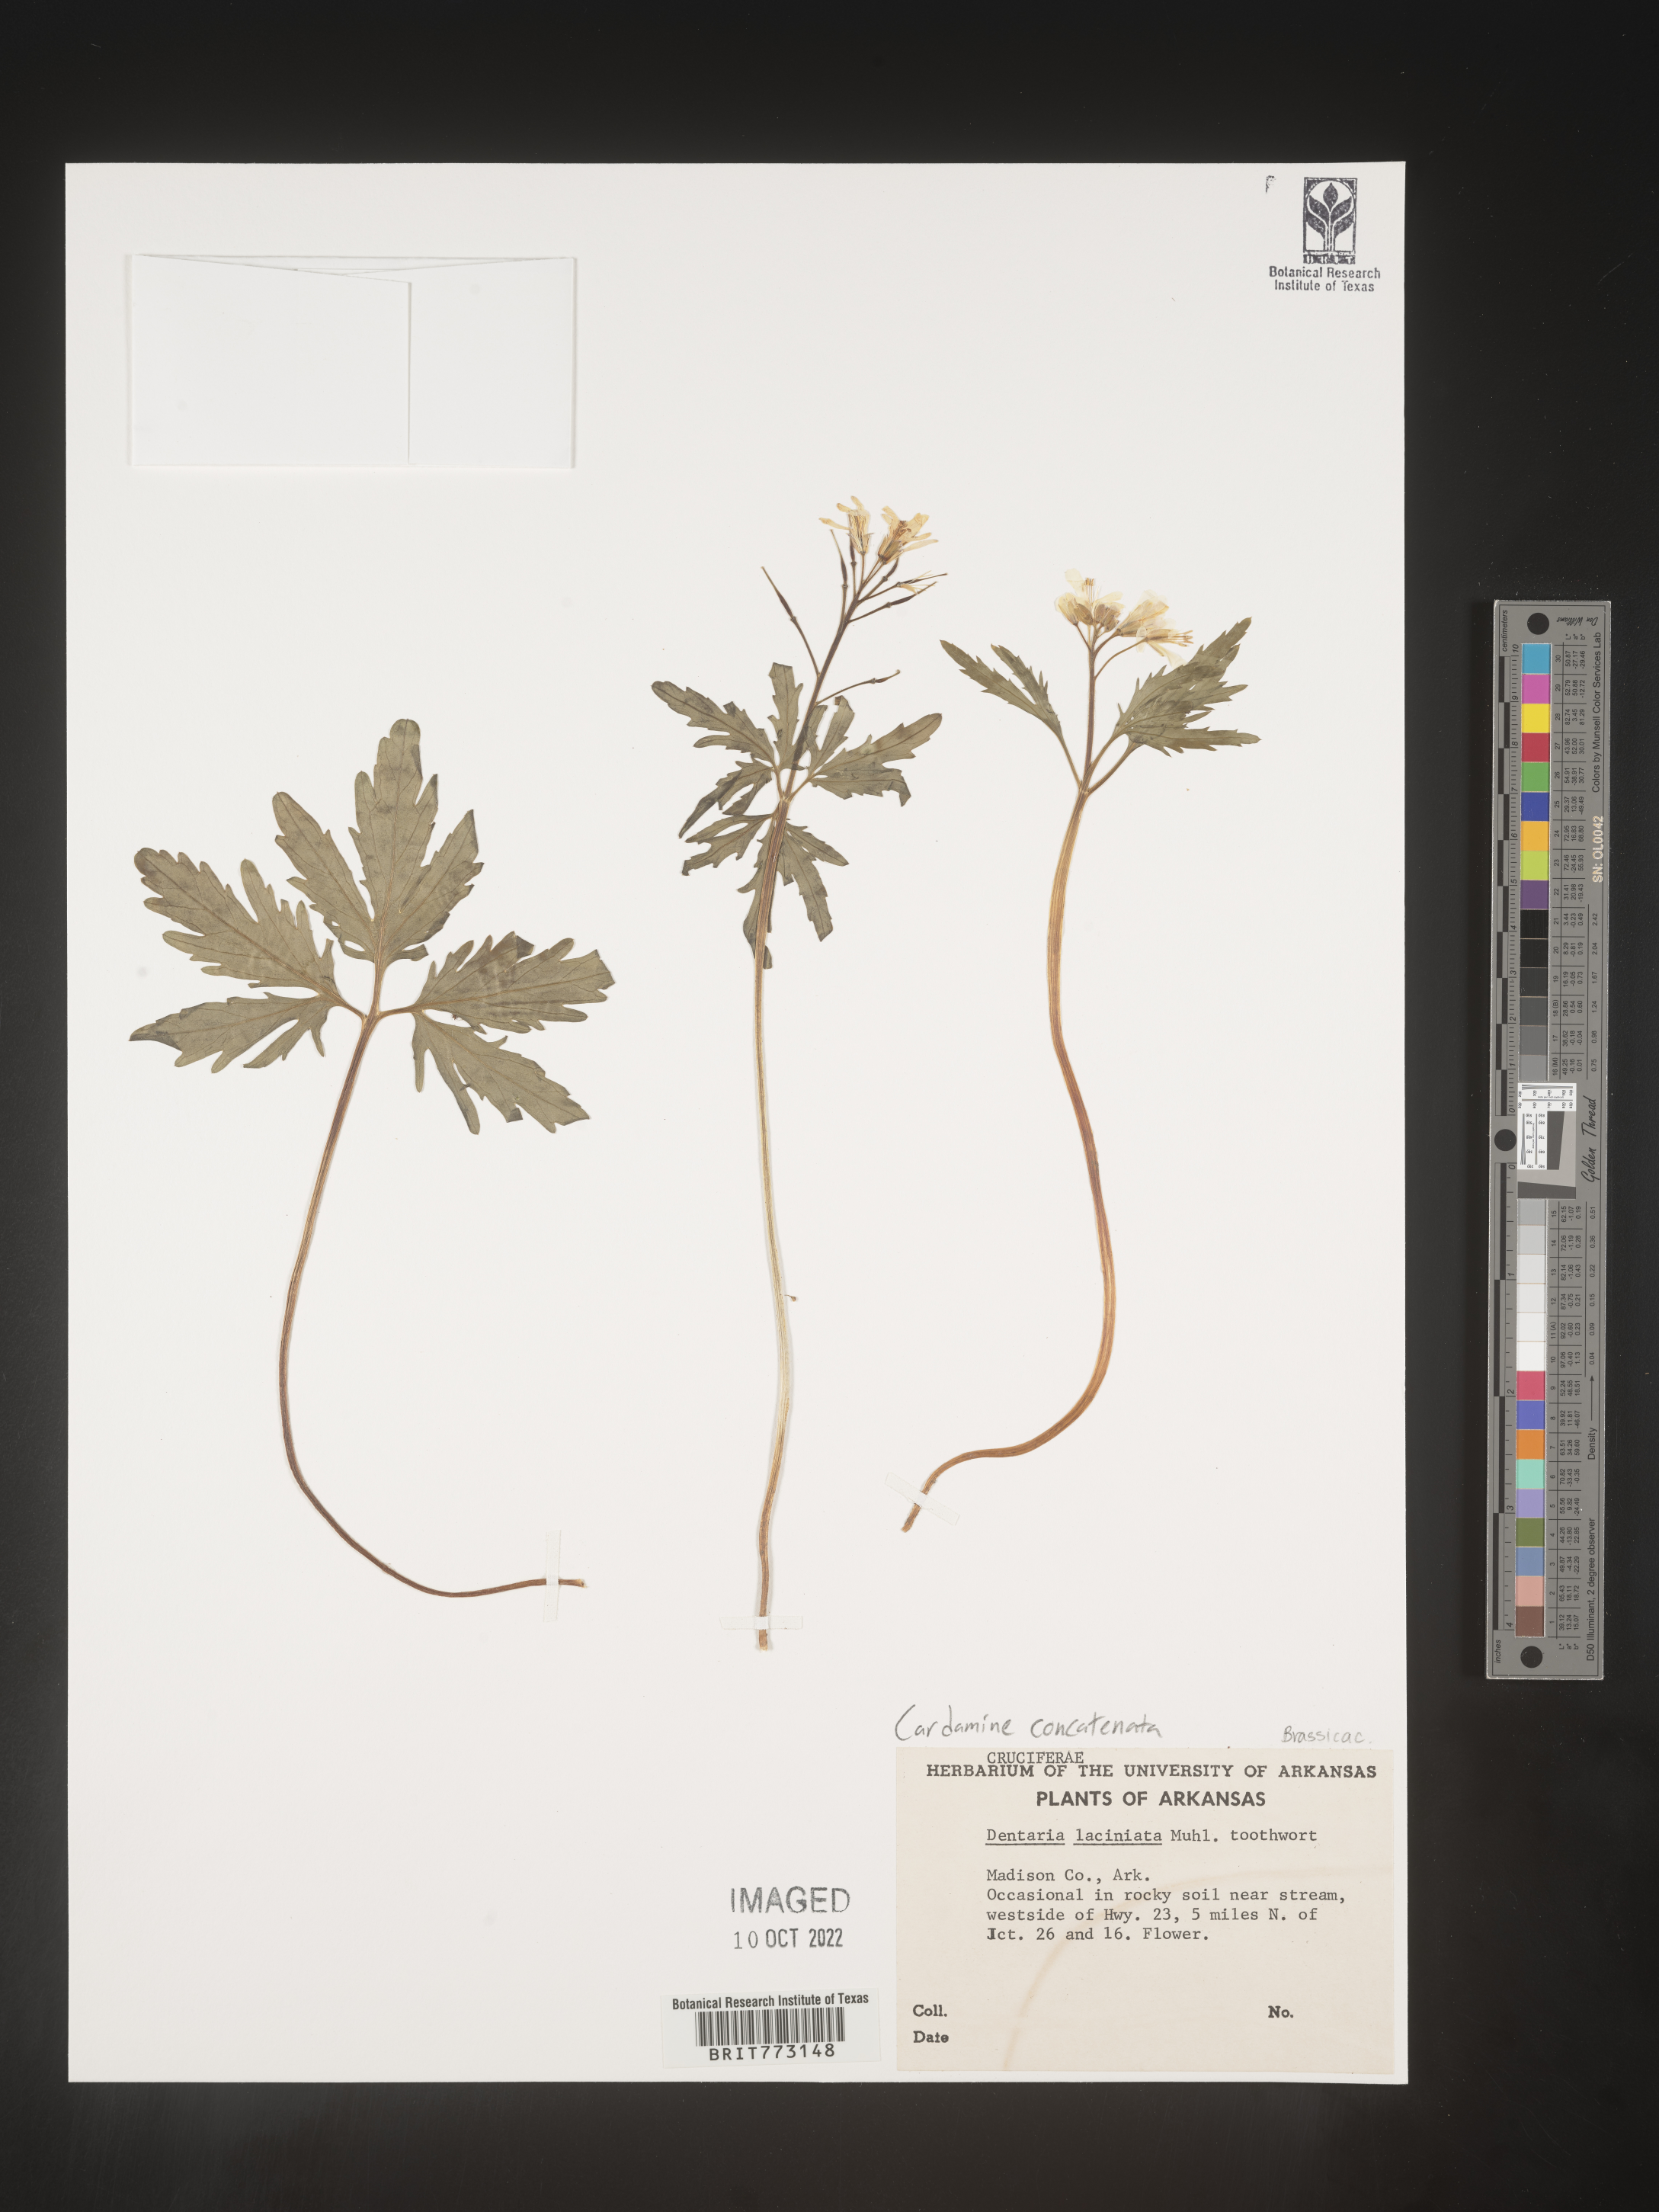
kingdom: Plantae
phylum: Tracheophyta
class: Magnoliopsida
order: Brassicales
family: Brassicaceae
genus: Cardamine
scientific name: Cardamine
